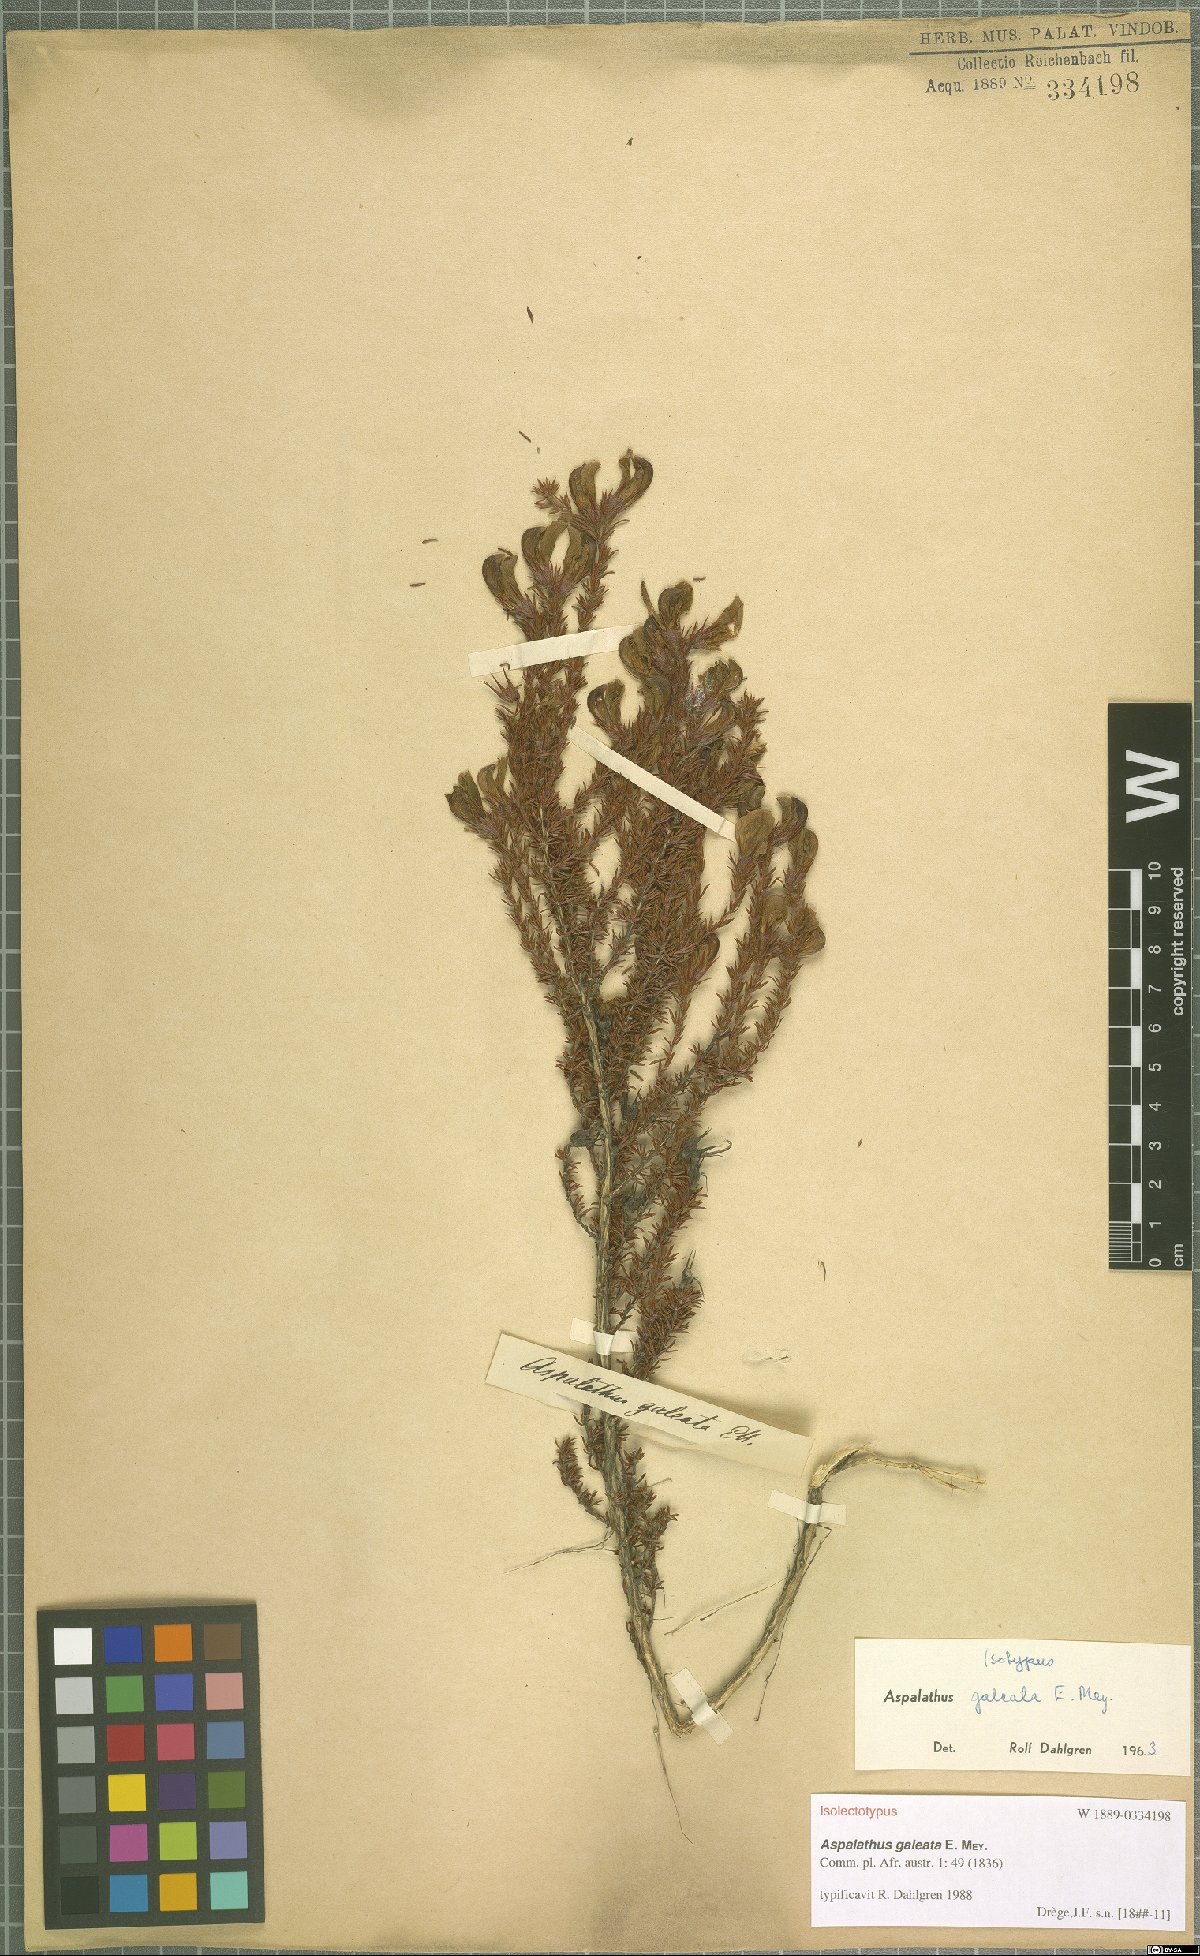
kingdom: Plantae
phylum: Tracheophyta
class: Magnoliopsida
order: Fabales
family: Fabaceae
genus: Aspalathus
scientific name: Aspalathus galeata
